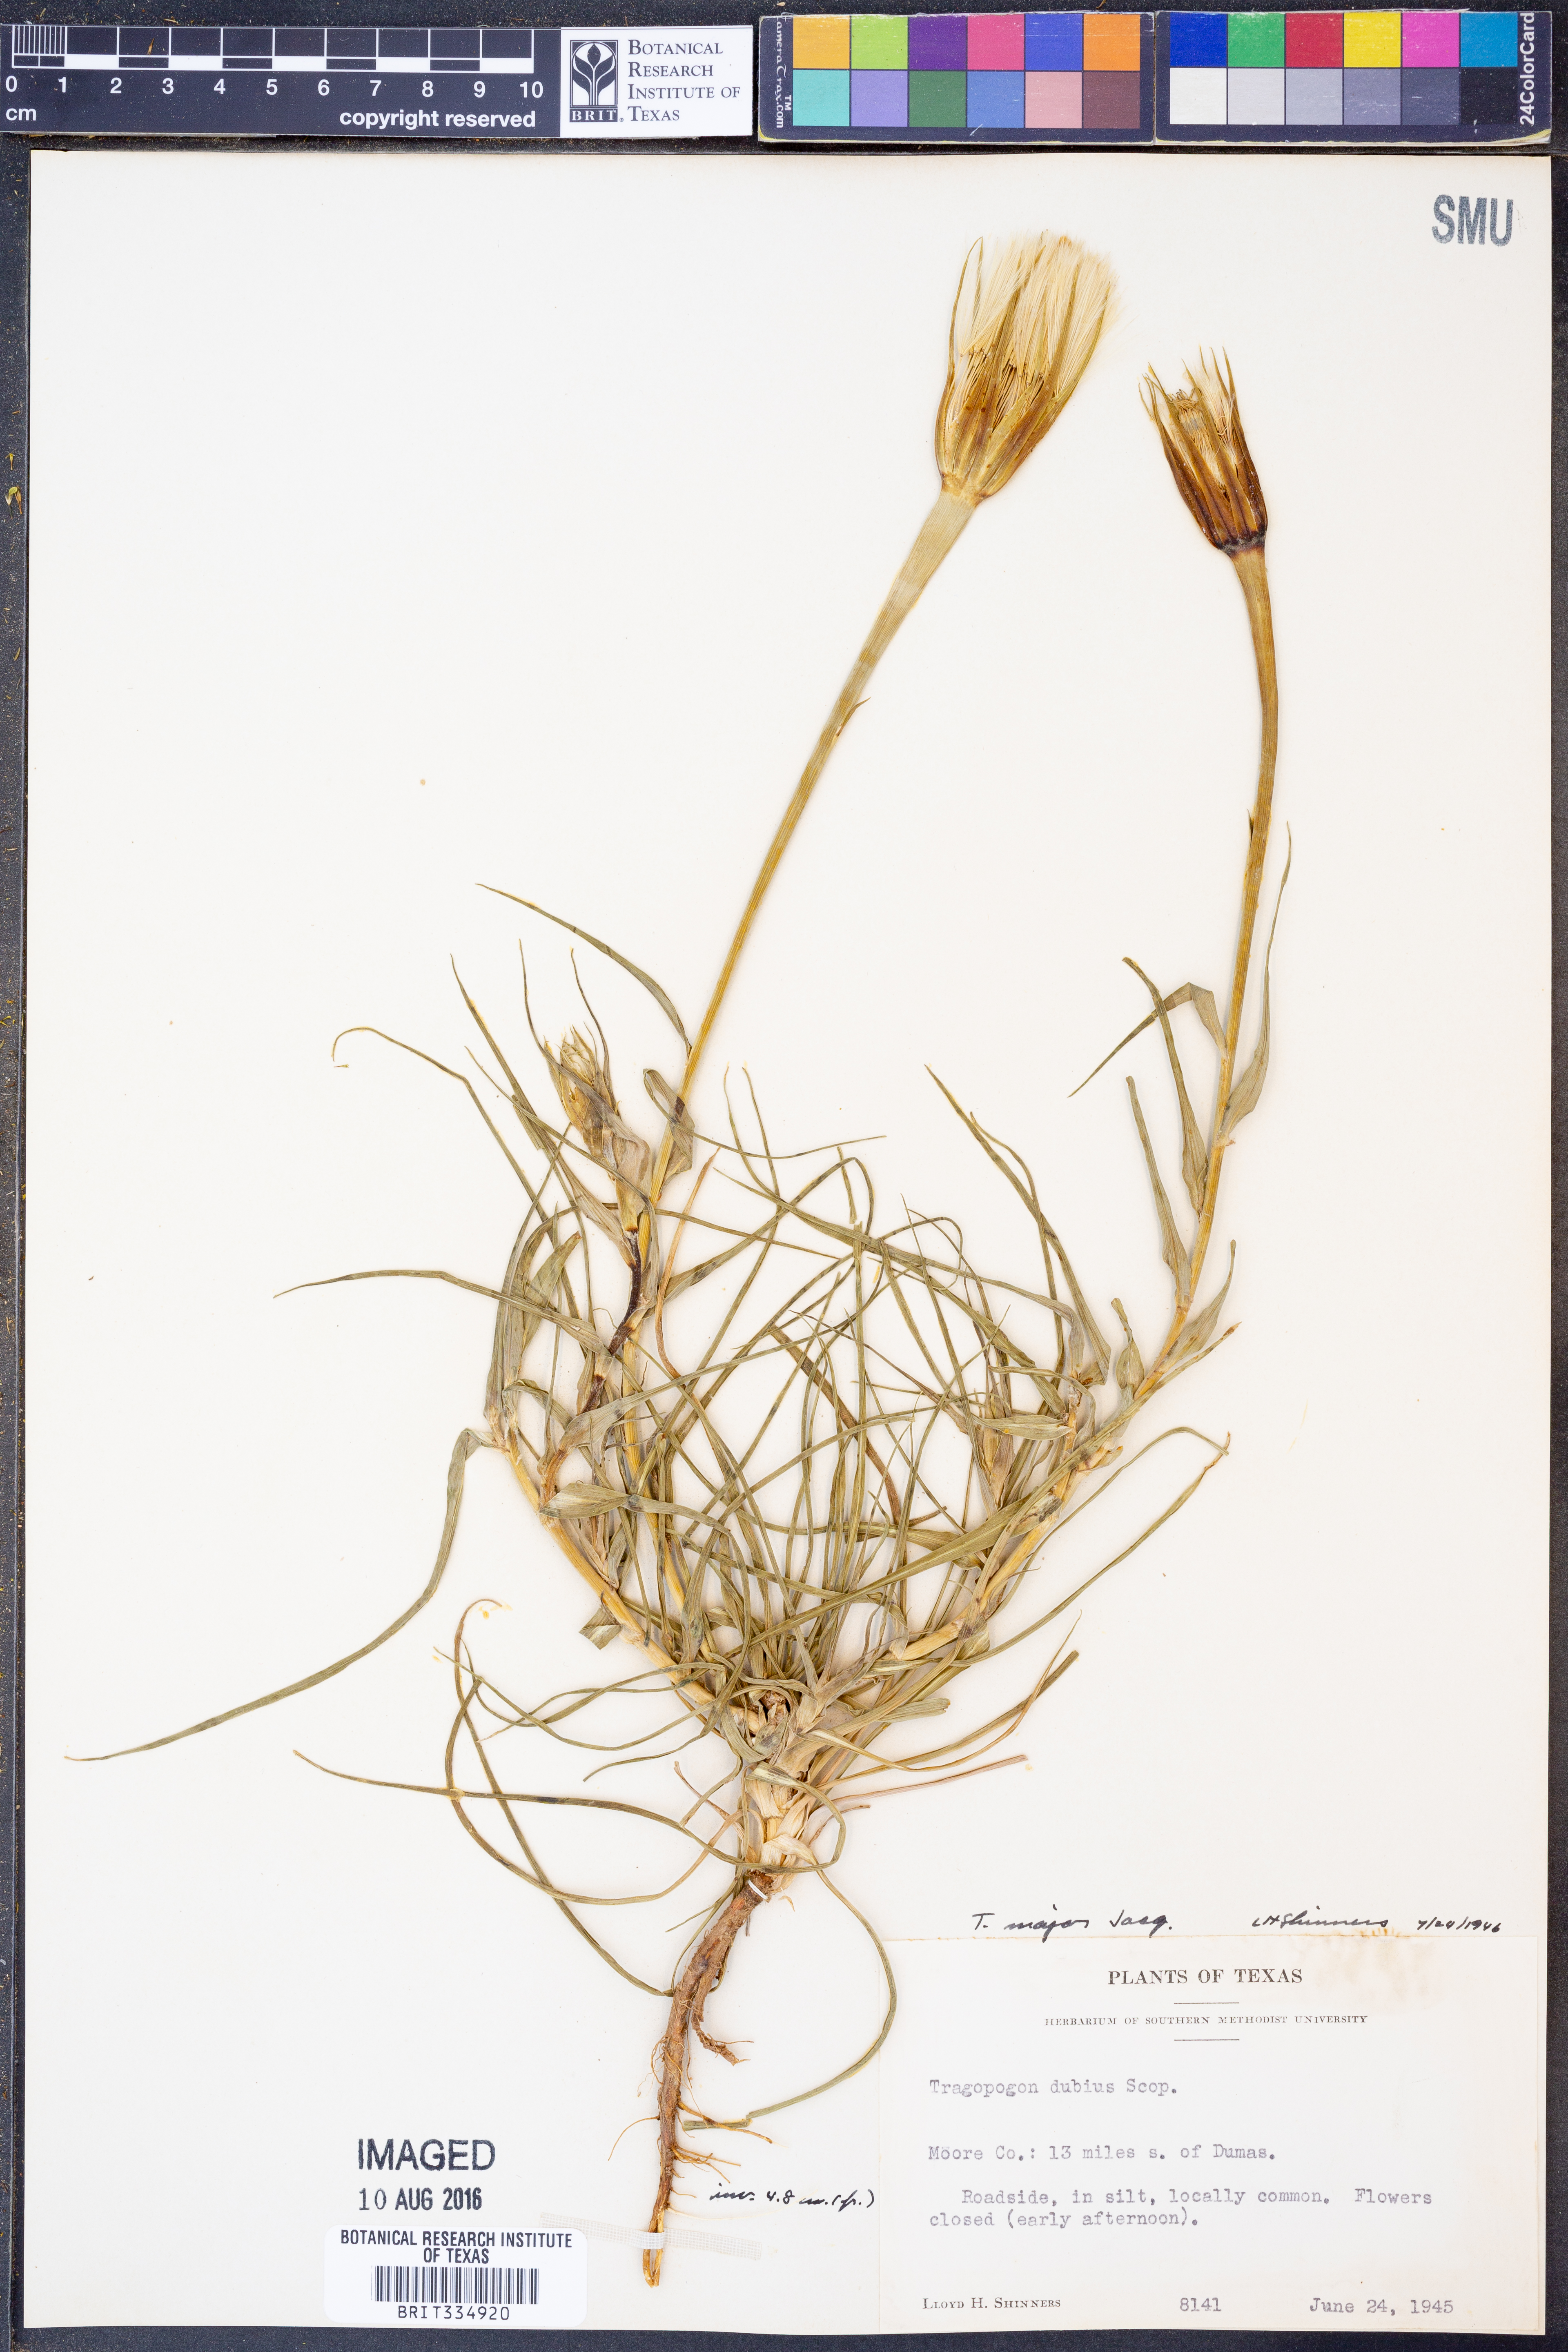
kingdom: Plantae
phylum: Tracheophyta
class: Magnoliopsida
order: Asterales
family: Asteraceae
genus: Tragopogon
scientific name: Tragopogon dubius
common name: Yellow salsify
